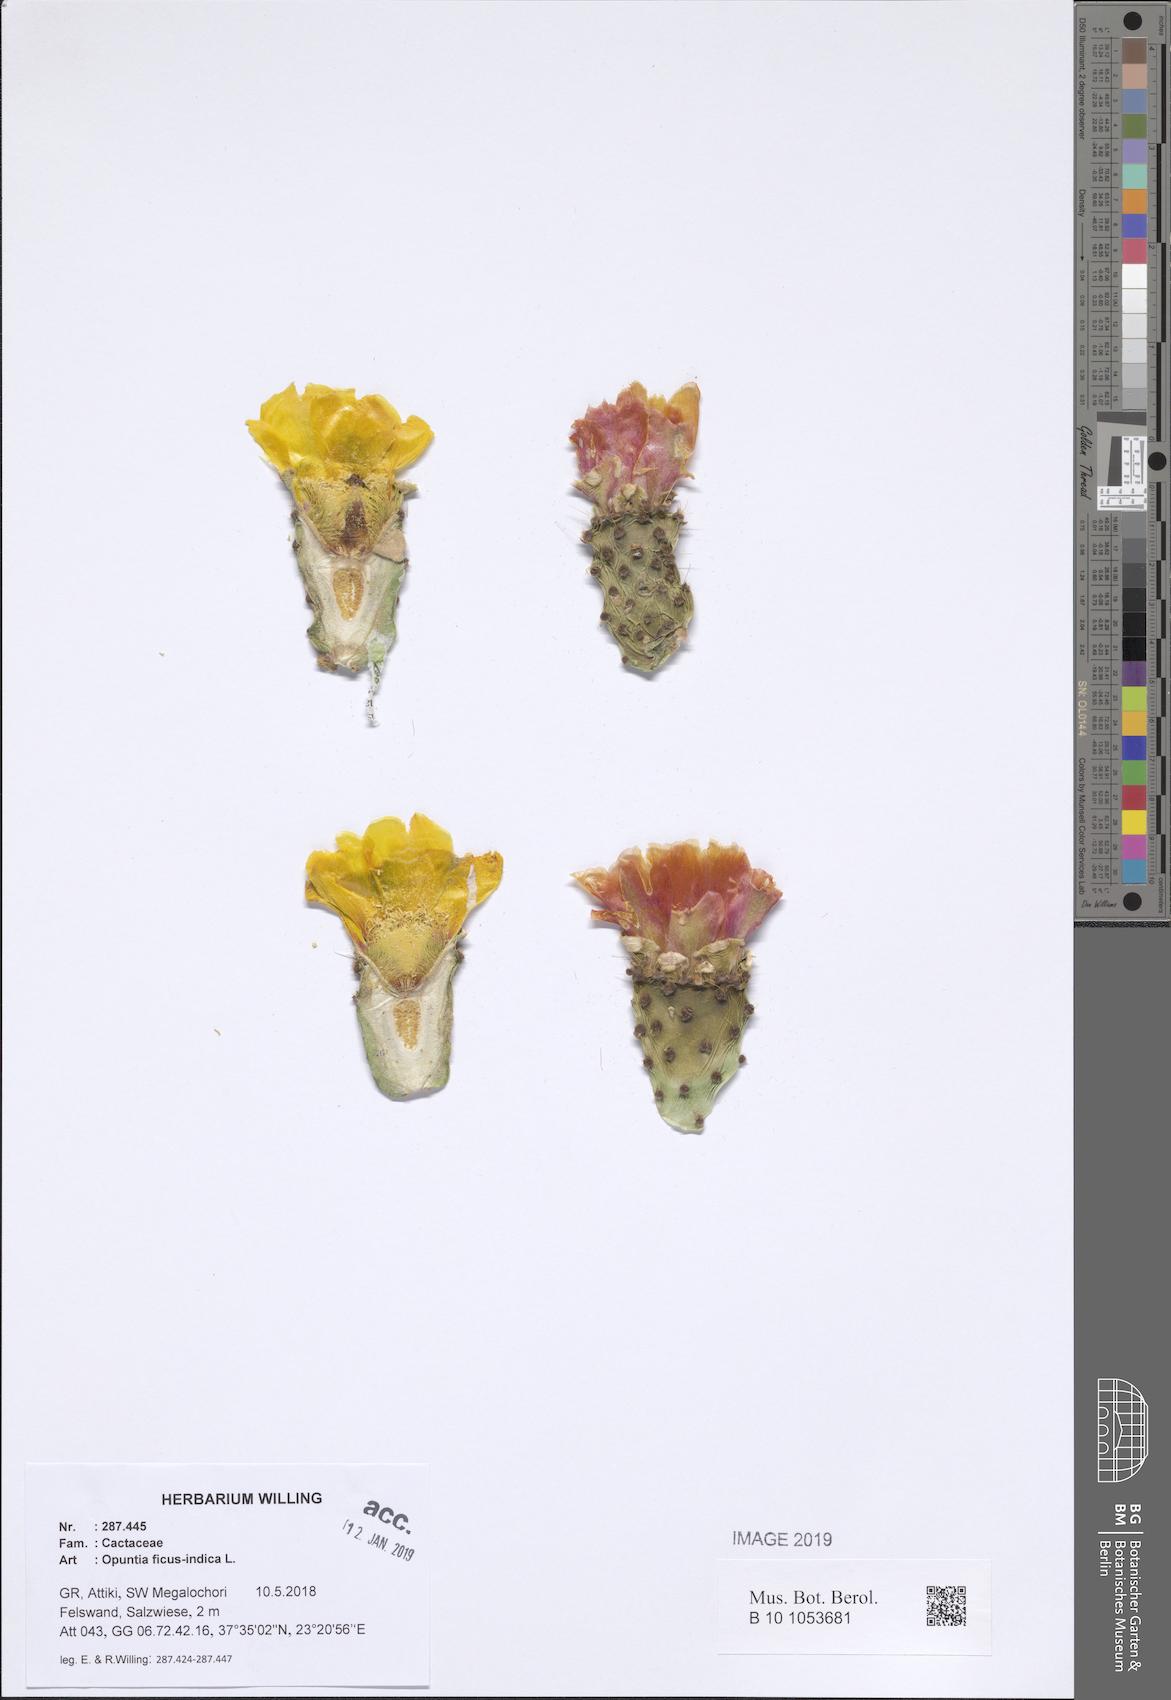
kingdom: Plantae
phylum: Tracheophyta
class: Magnoliopsida
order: Caryophyllales
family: Cactaceae
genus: Opuntia
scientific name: Opuntia ficus-indica
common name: Barbary fig
